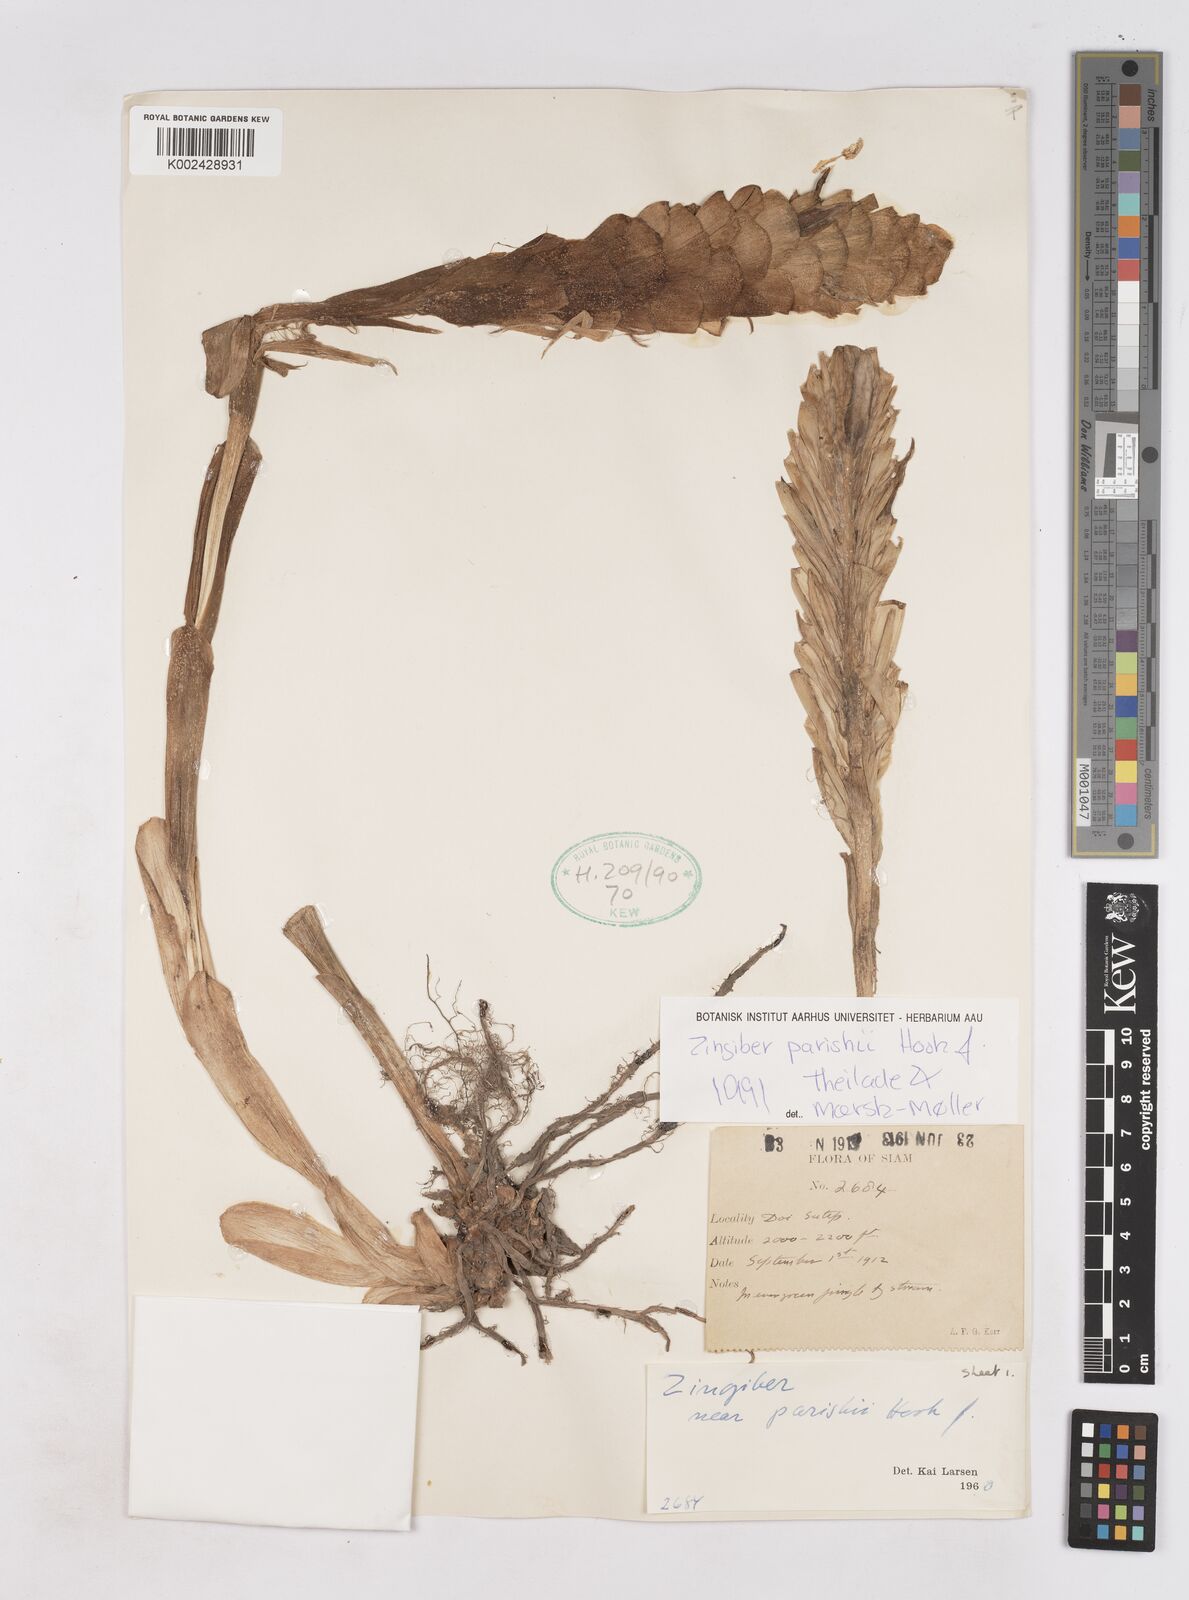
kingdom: Plantae
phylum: Tracheophyta
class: Liliopsida
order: Zingiberales
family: Zingiberaceae
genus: Zingiber
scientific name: Zingiber parishii
